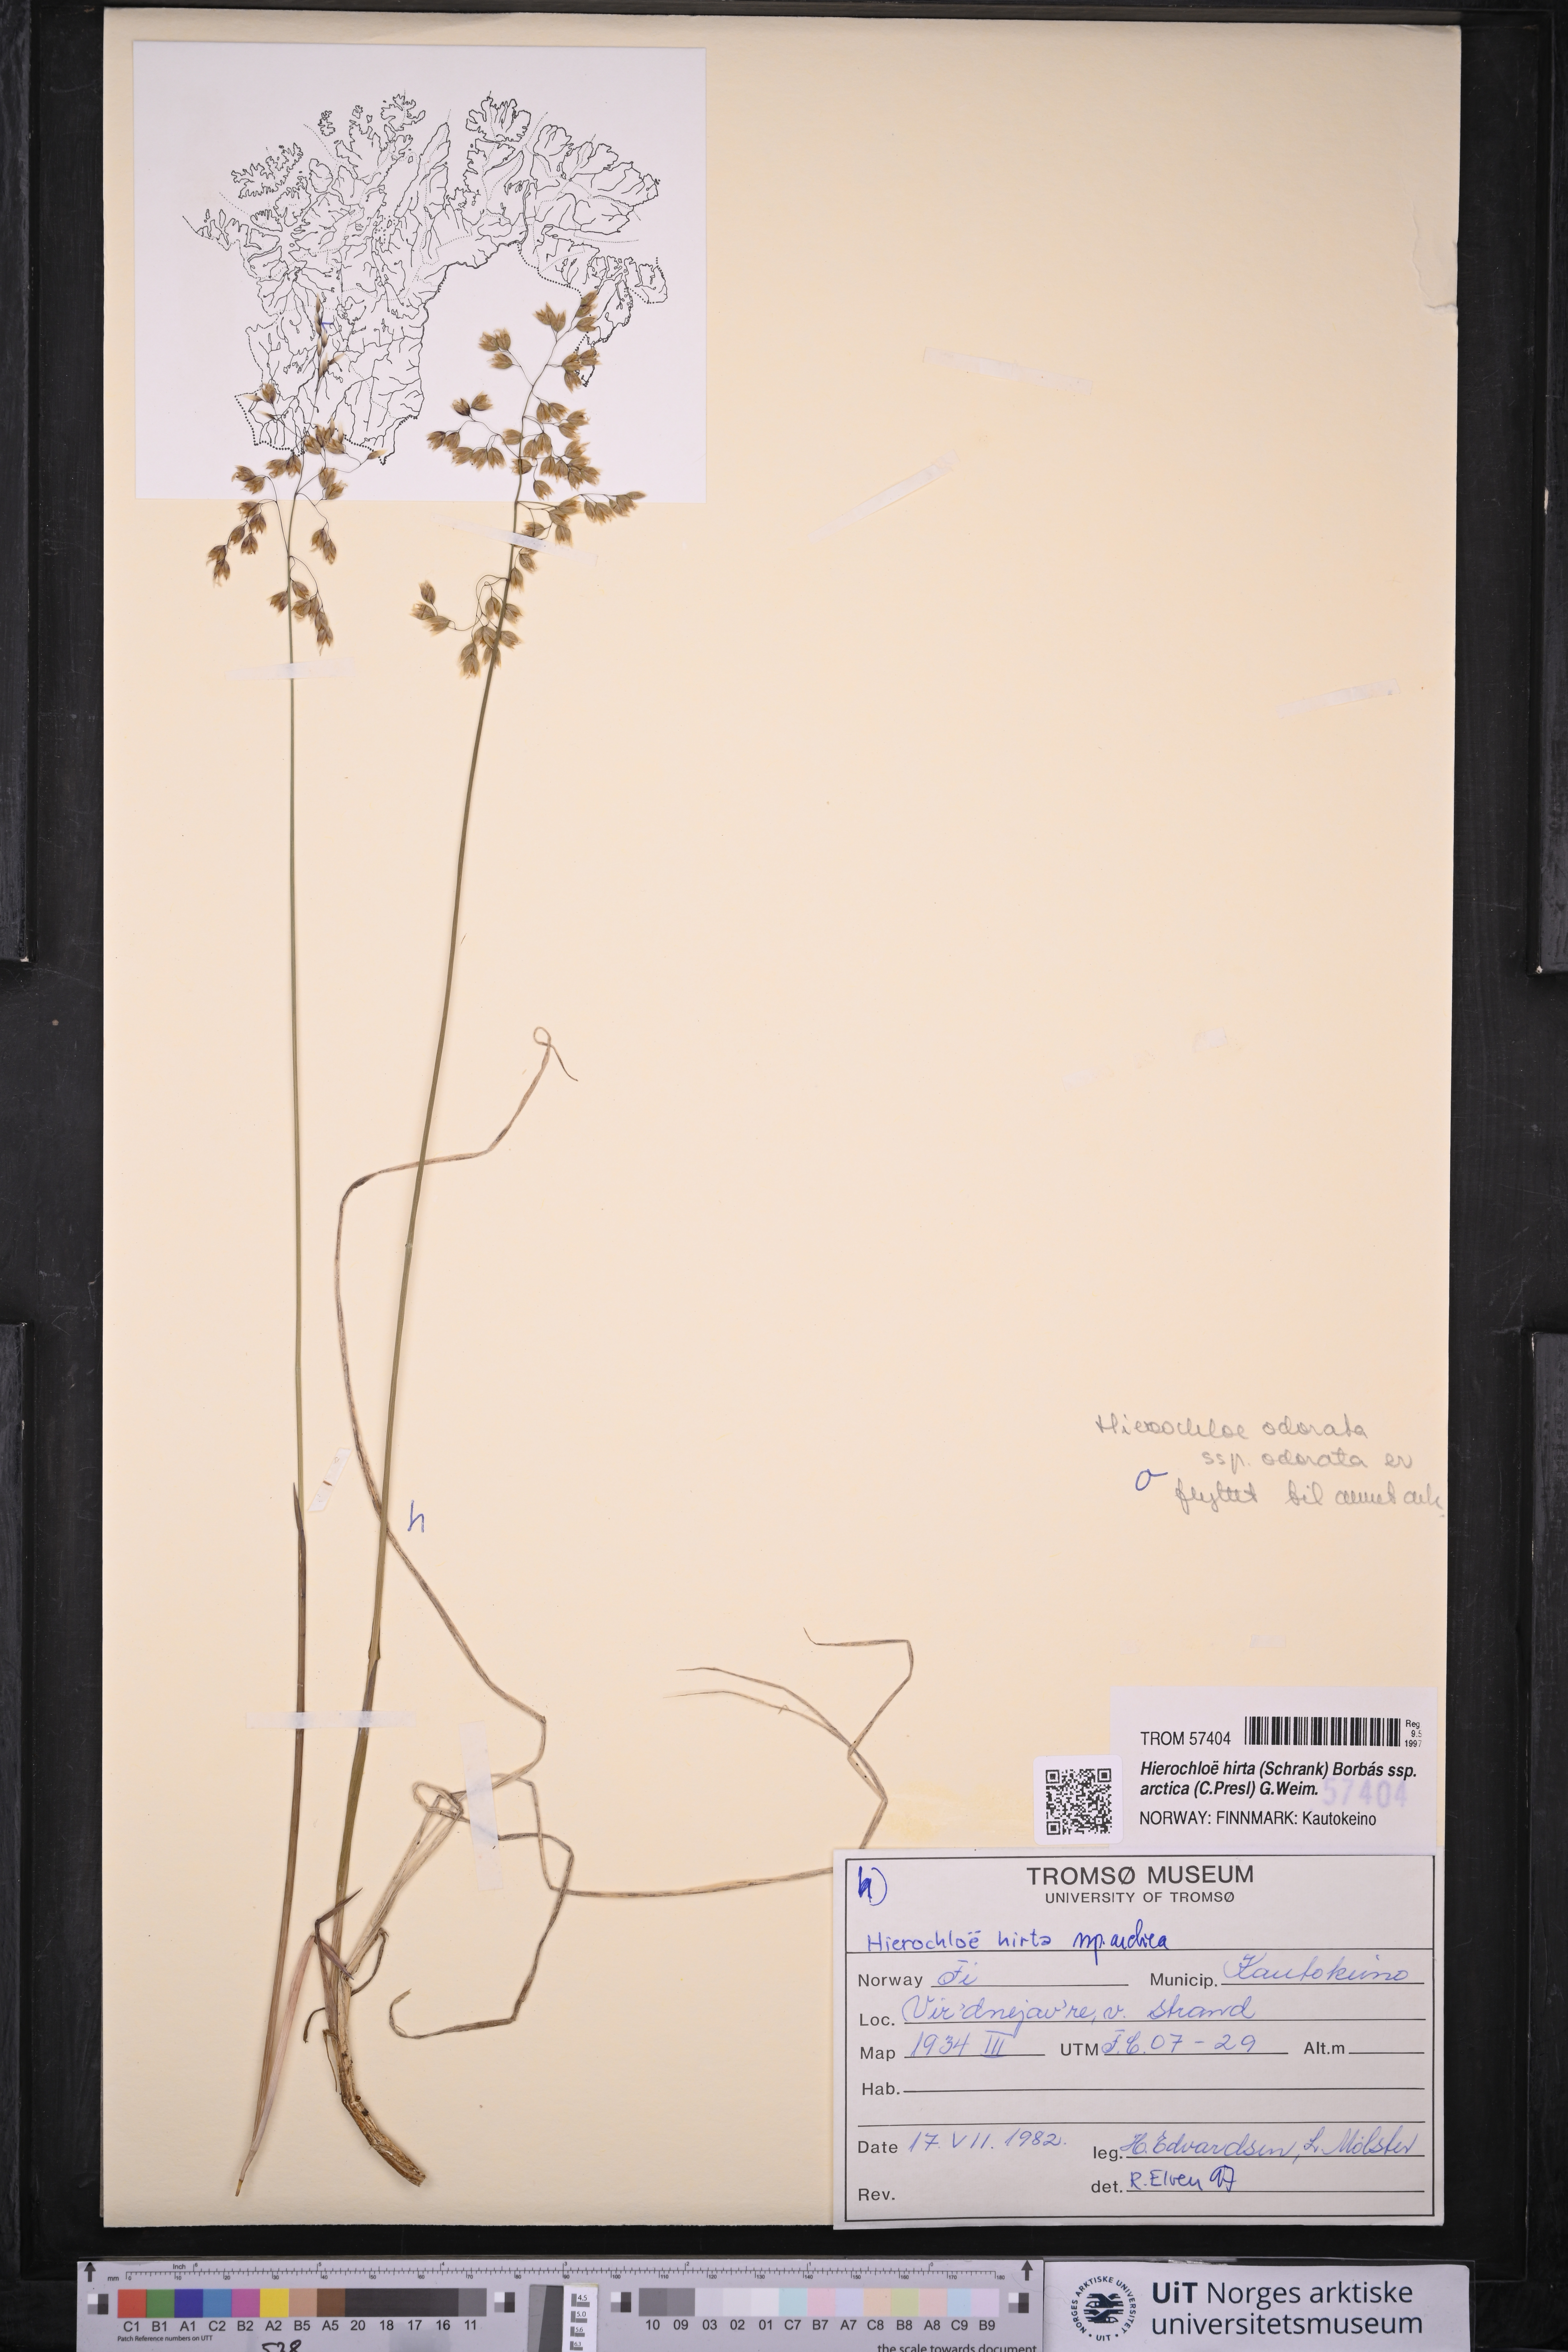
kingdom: Plantae
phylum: Tracheophyta
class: Liliopsida
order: Poales
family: Poaceae
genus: Anthoxanthum
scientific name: Anthoxanthum nitens
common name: Holy grass
